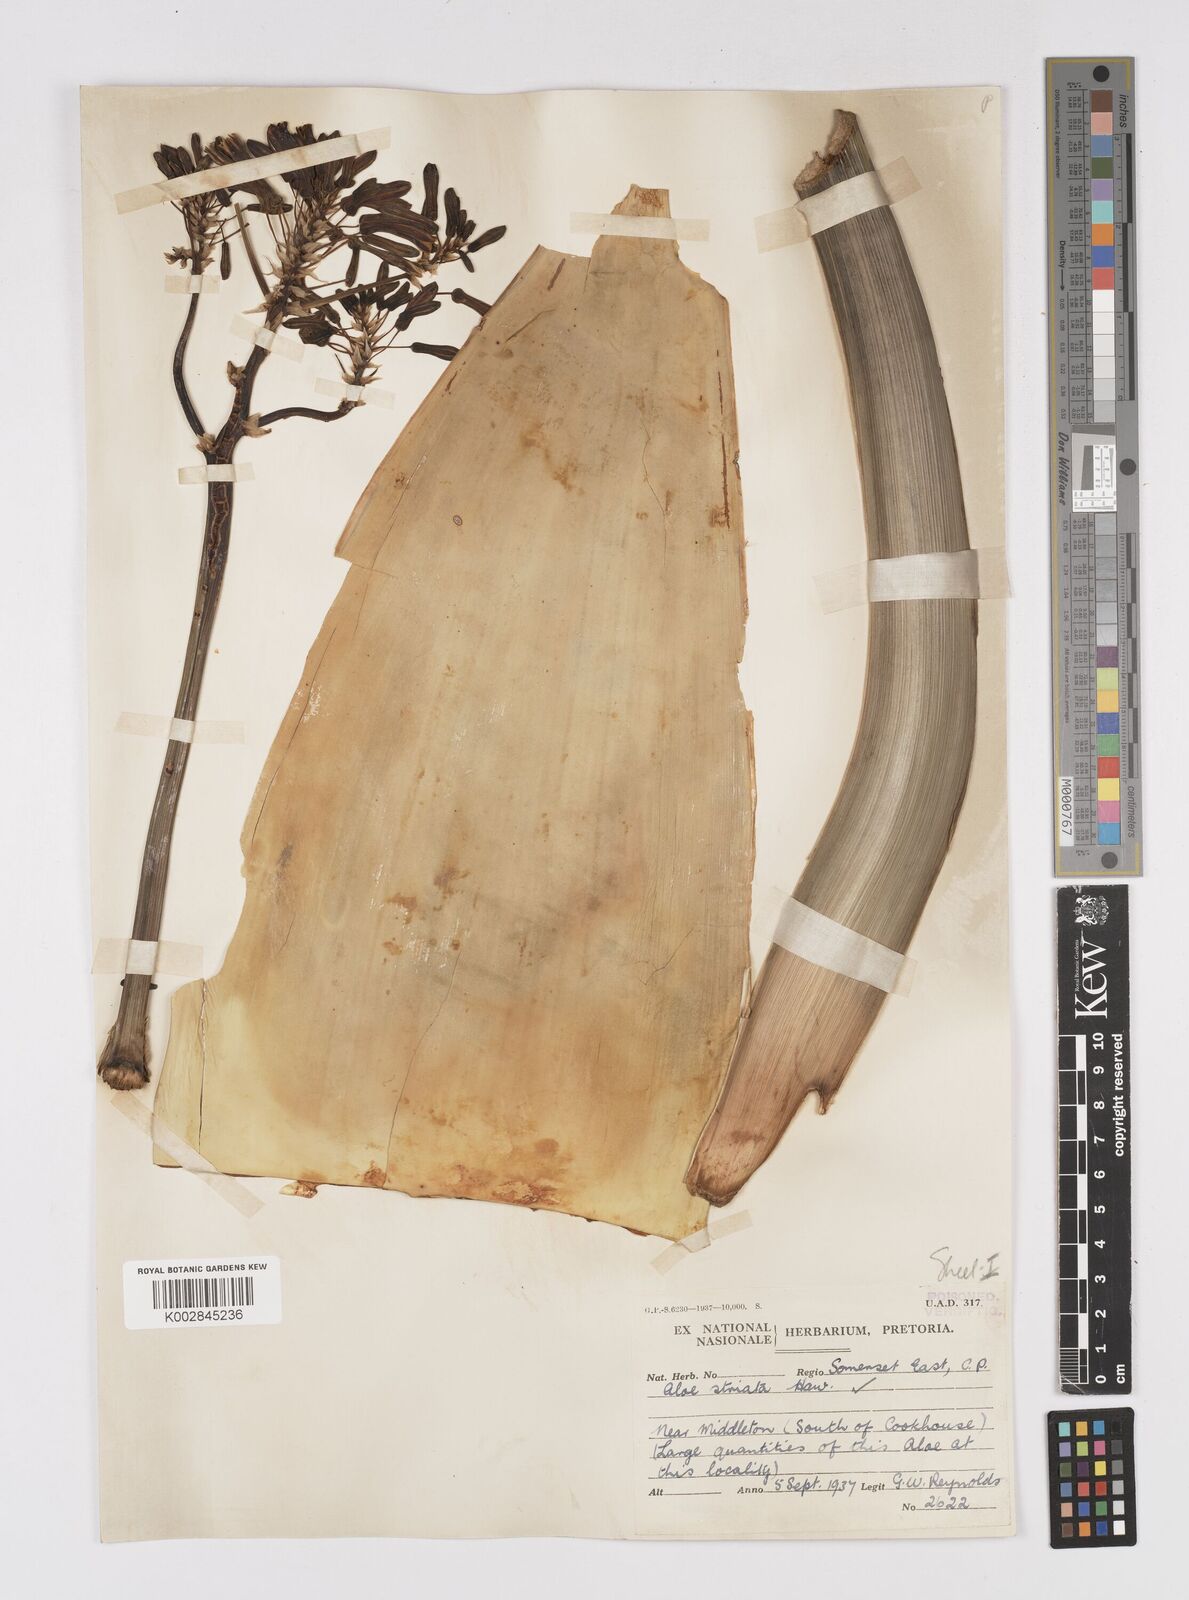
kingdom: Plantae
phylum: Tracheophyta
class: Liliopsida
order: Asparagales
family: Asphodelaceae
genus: Aloe
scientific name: Aloe striata
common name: Coral aloe
